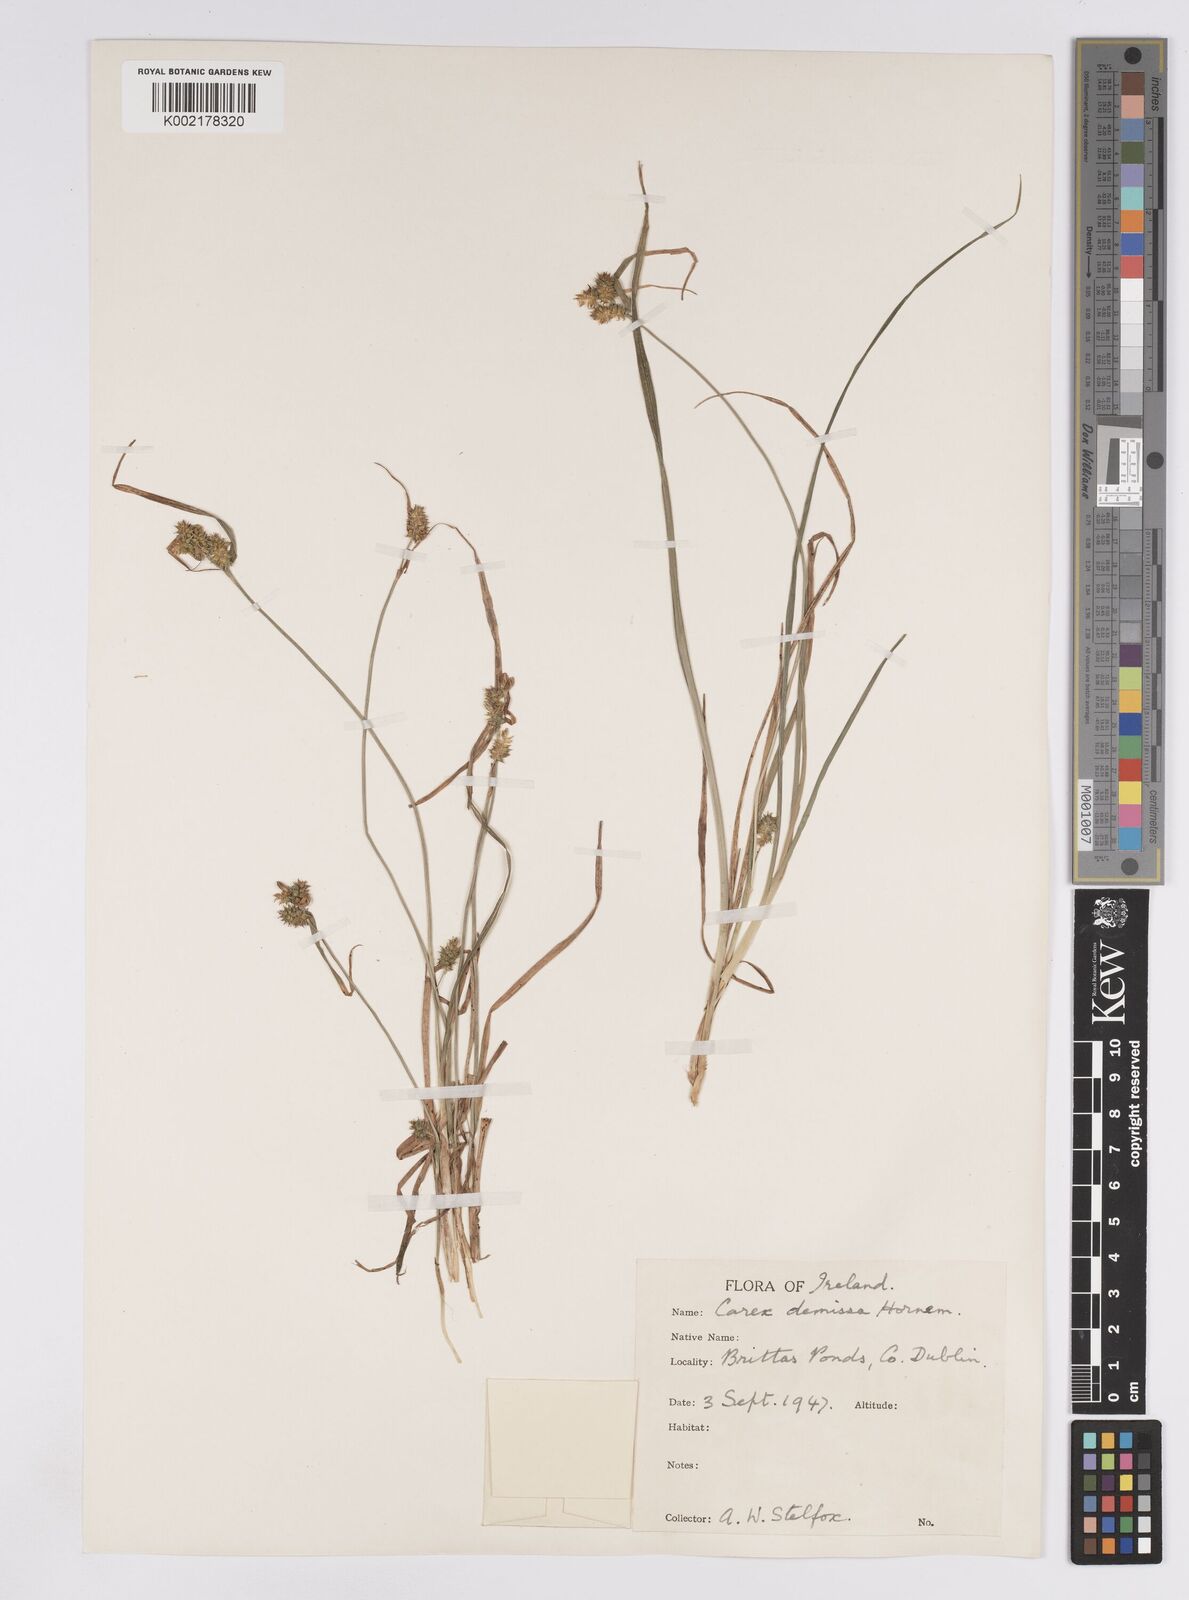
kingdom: Plantae
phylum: Tracheophyta
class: Liliopsida
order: Poales
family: Cyperaceae
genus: Carex
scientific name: Carex demissa
